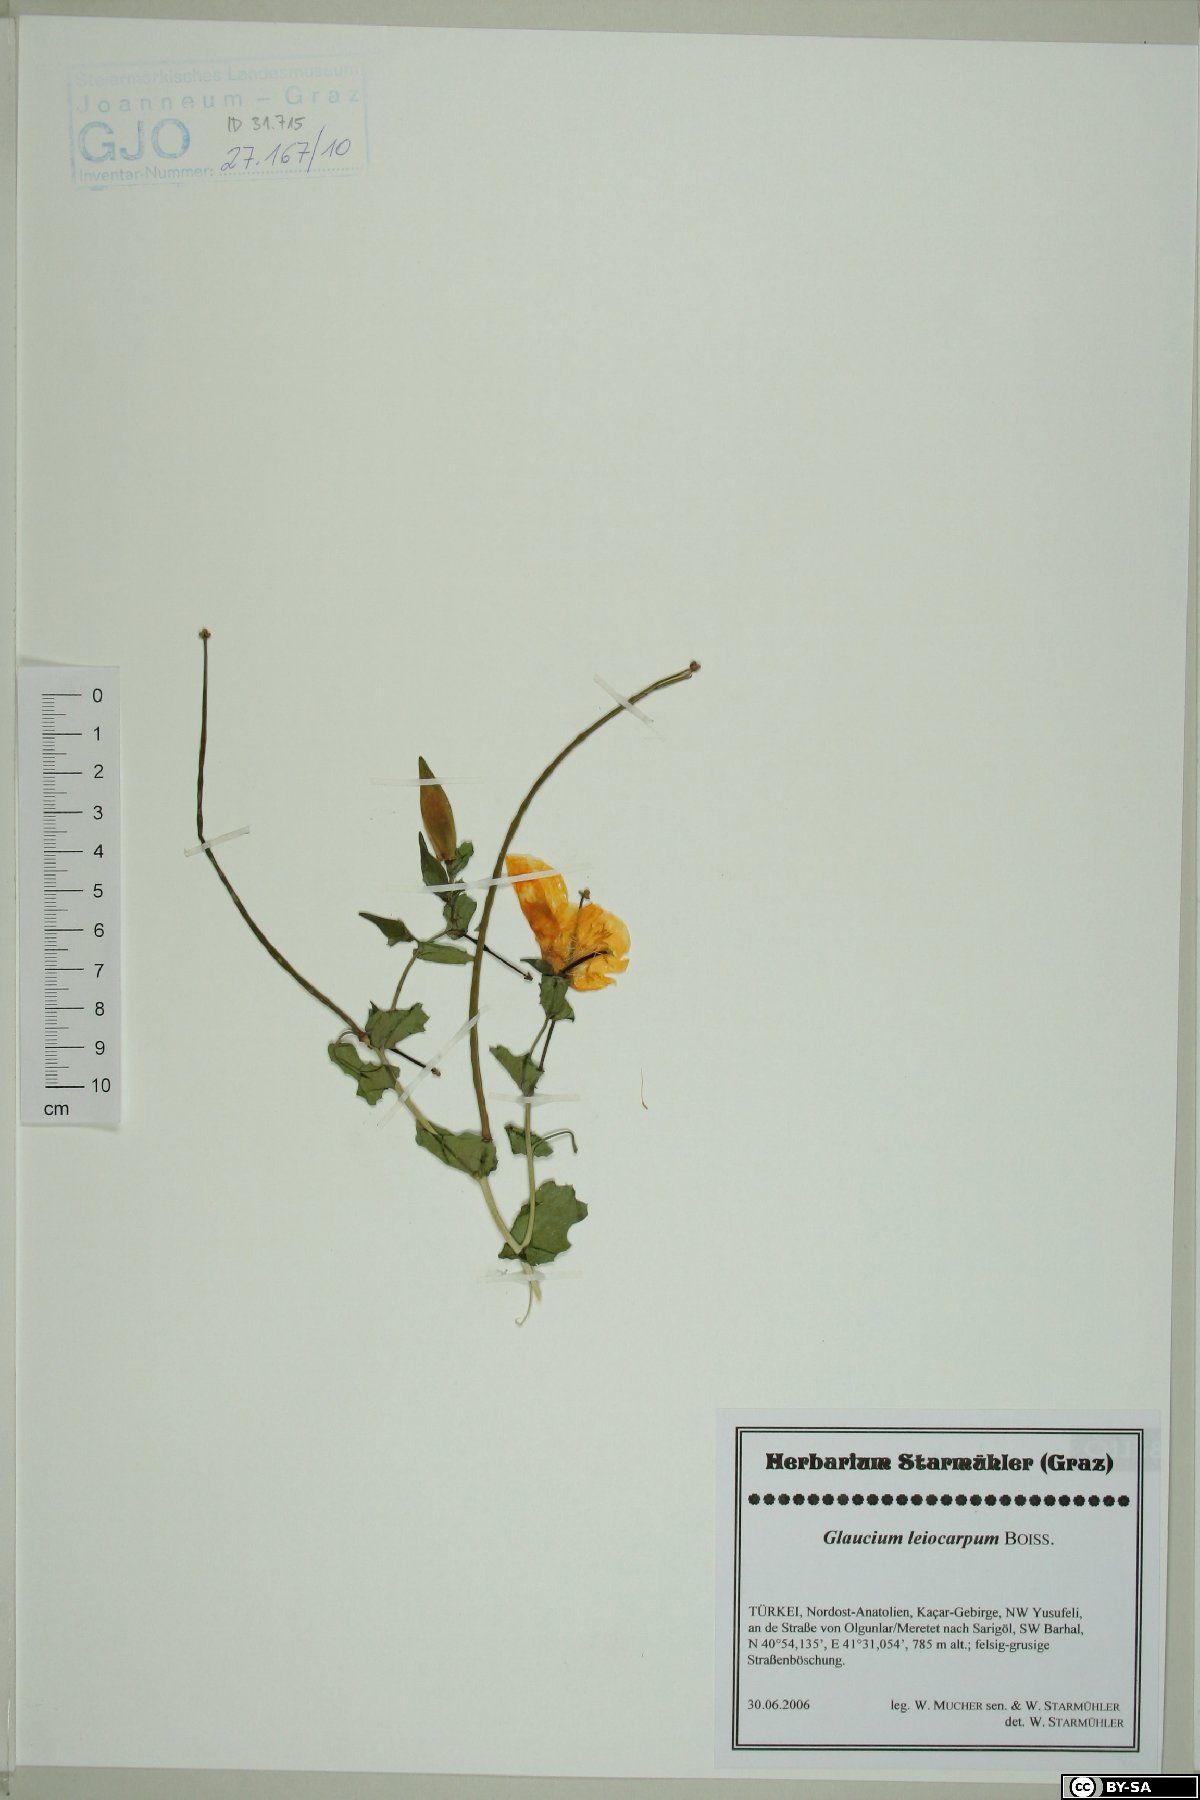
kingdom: Plantae
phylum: Tracheophyta
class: Magnoliopsida
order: Ranunculales
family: Papaveraceae
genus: Glaucium
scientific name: Glaucium oxylobum
